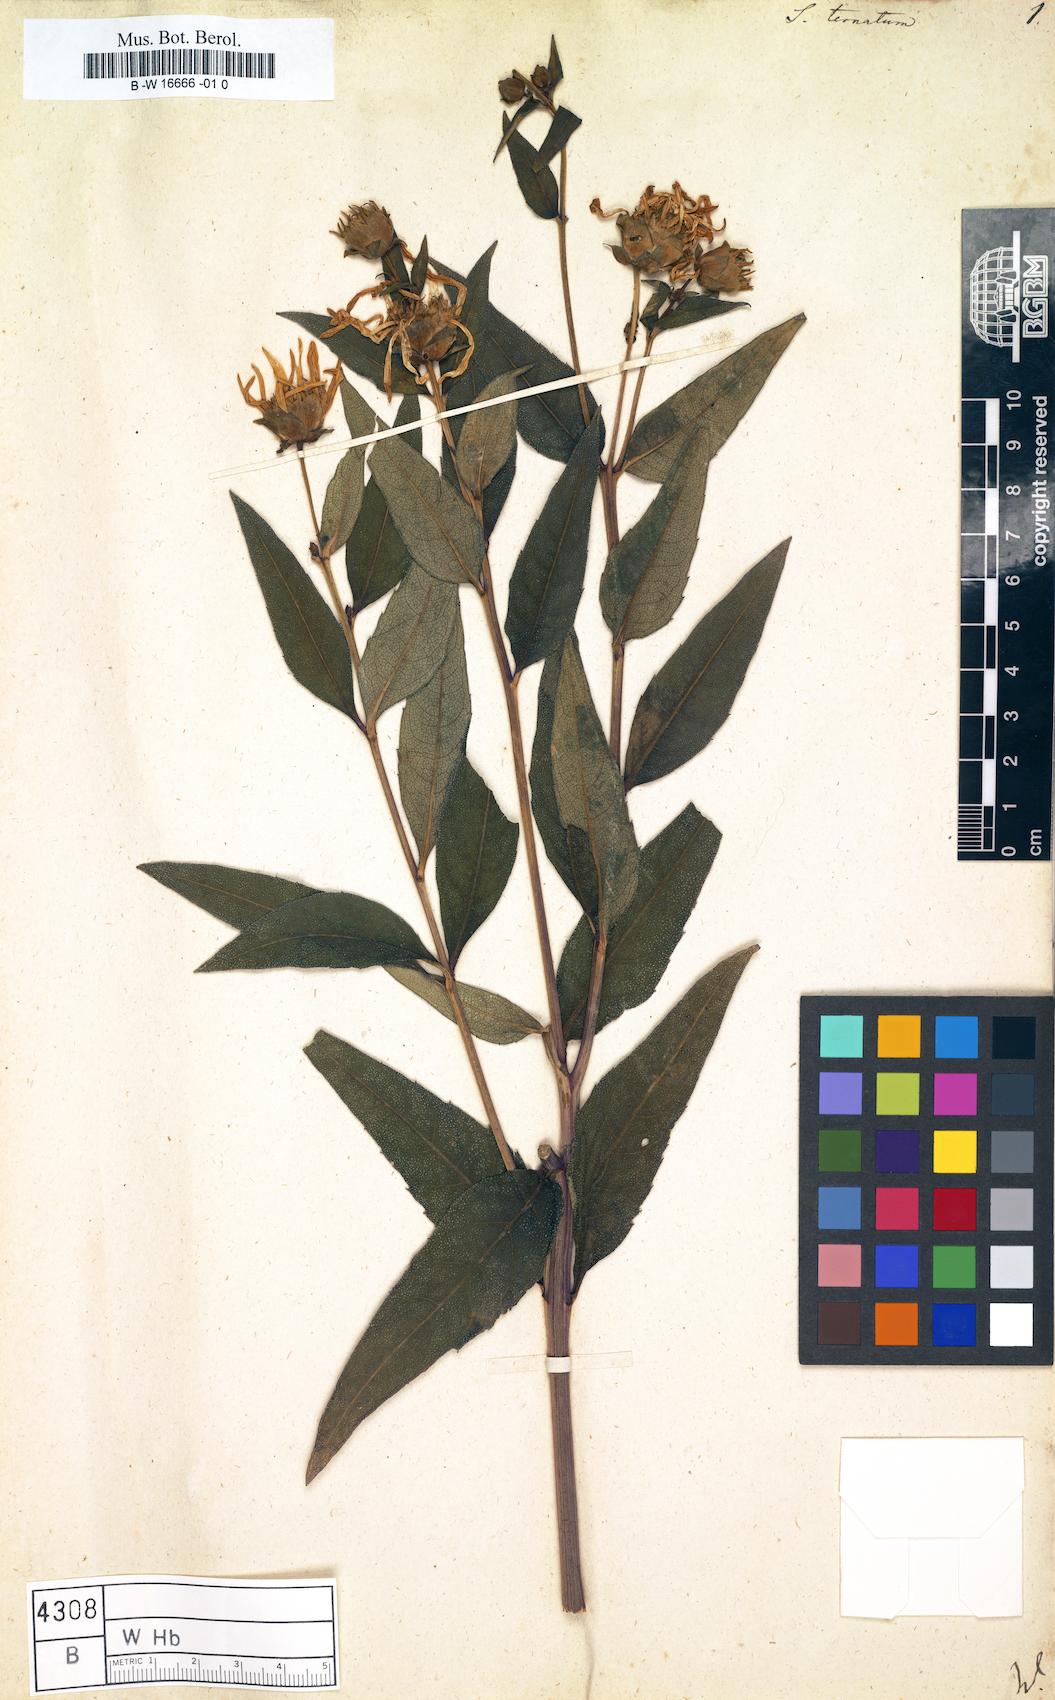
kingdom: Plantae
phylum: Tracheophyta
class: Magnoliopsida
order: Asterales
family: Asteraceae
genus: Silphium
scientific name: Silphium ternatum
